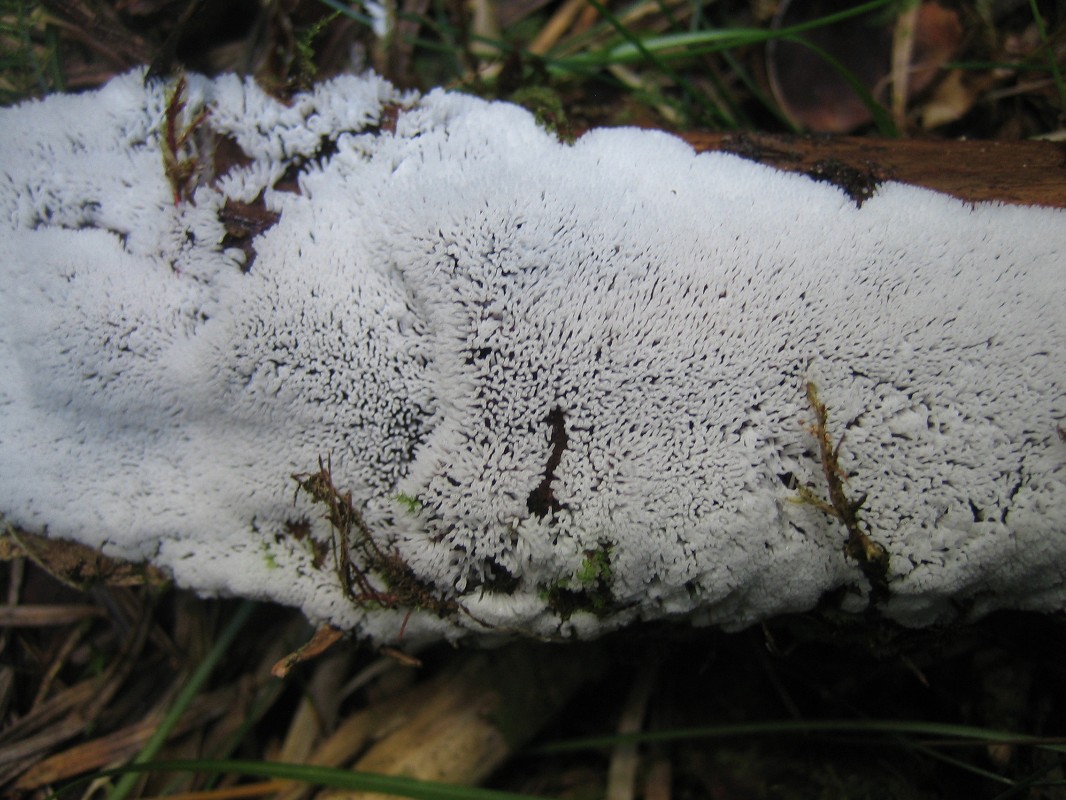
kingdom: Protozoa
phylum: Mycetozoa
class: Protosteliomycetes
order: Ceratiomyxales
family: Ceratiomyxaceae
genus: Ceratiomyxa
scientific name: Ceratiomyxa fruticulosa
